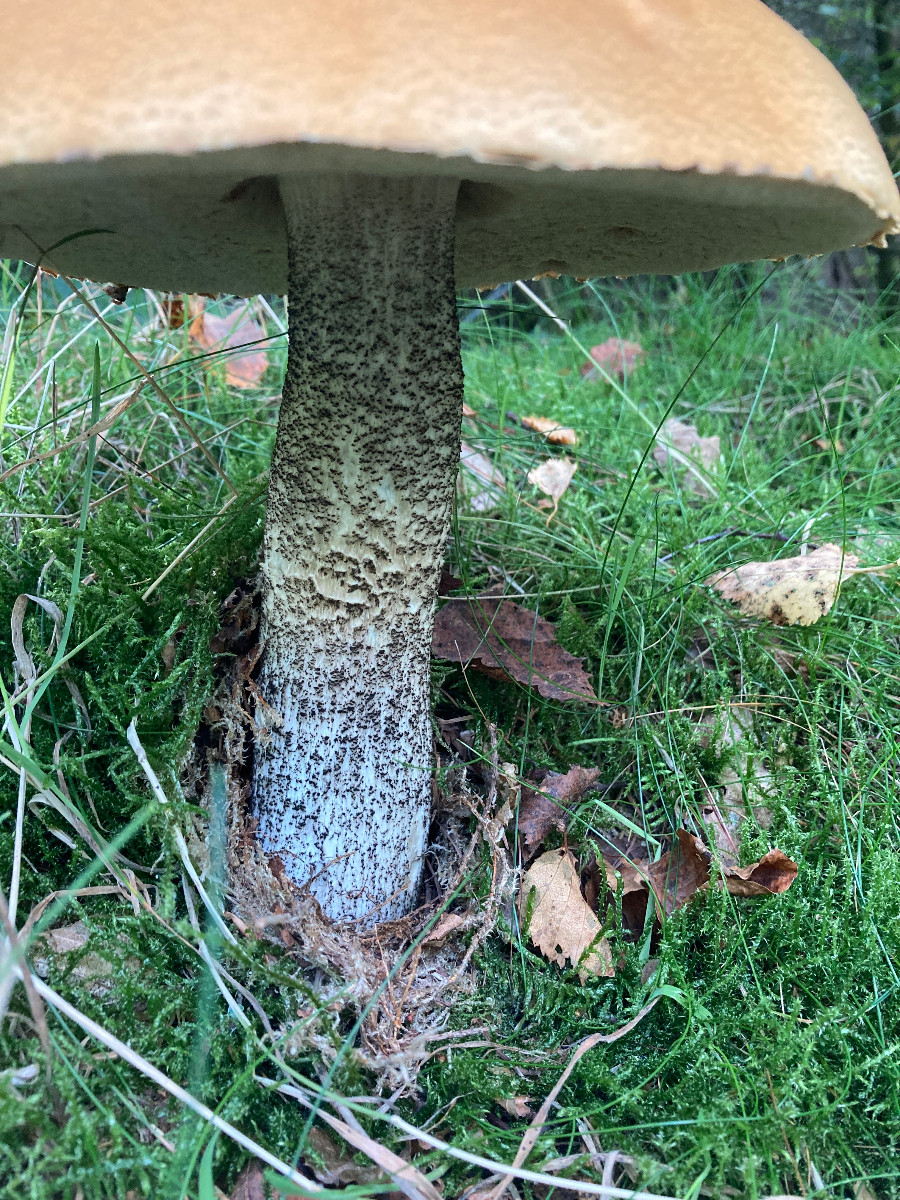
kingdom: Fungi
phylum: Basidiomycota
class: Agaricomycetes
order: Boletales
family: Boletaceae
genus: Leccinum
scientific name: Leccinum versipelle
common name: orange skælrørhat
